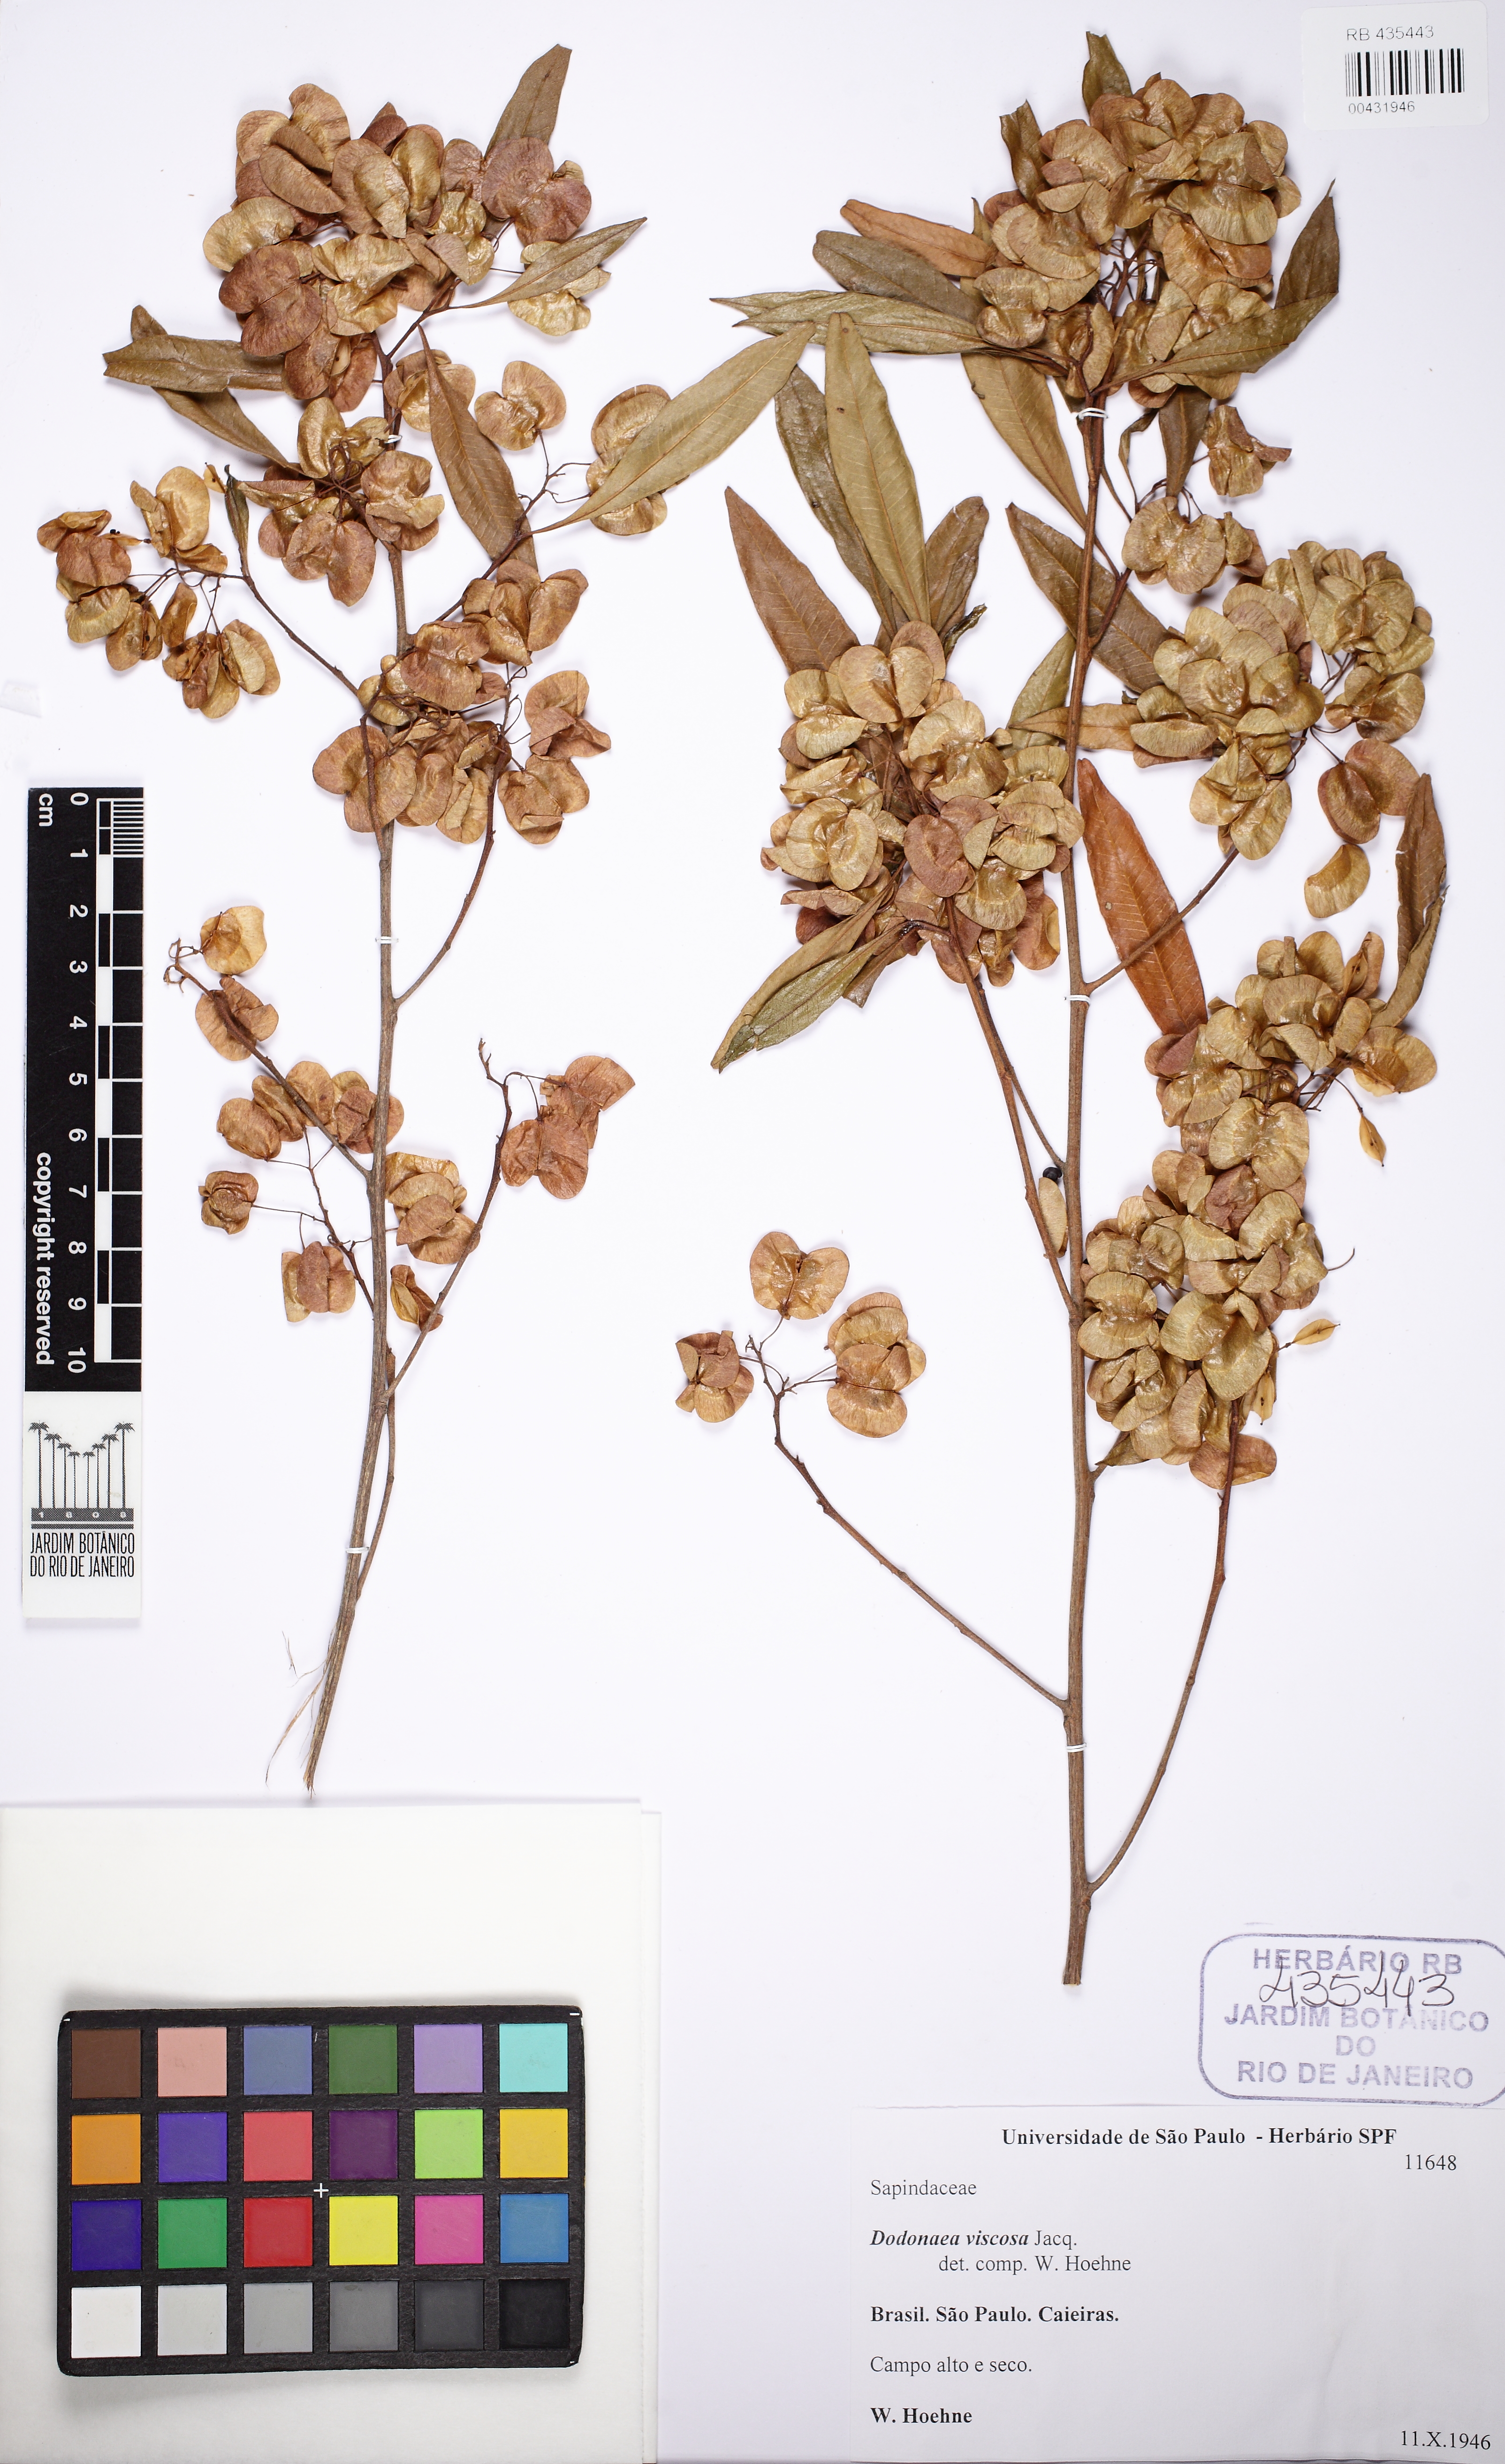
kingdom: Plantae
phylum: Tracheophyta
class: Magnoliopsida
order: Sapindales
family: Sapindaceae
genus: Dodonaea
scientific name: Dodonaea viscosa
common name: Hopbush
